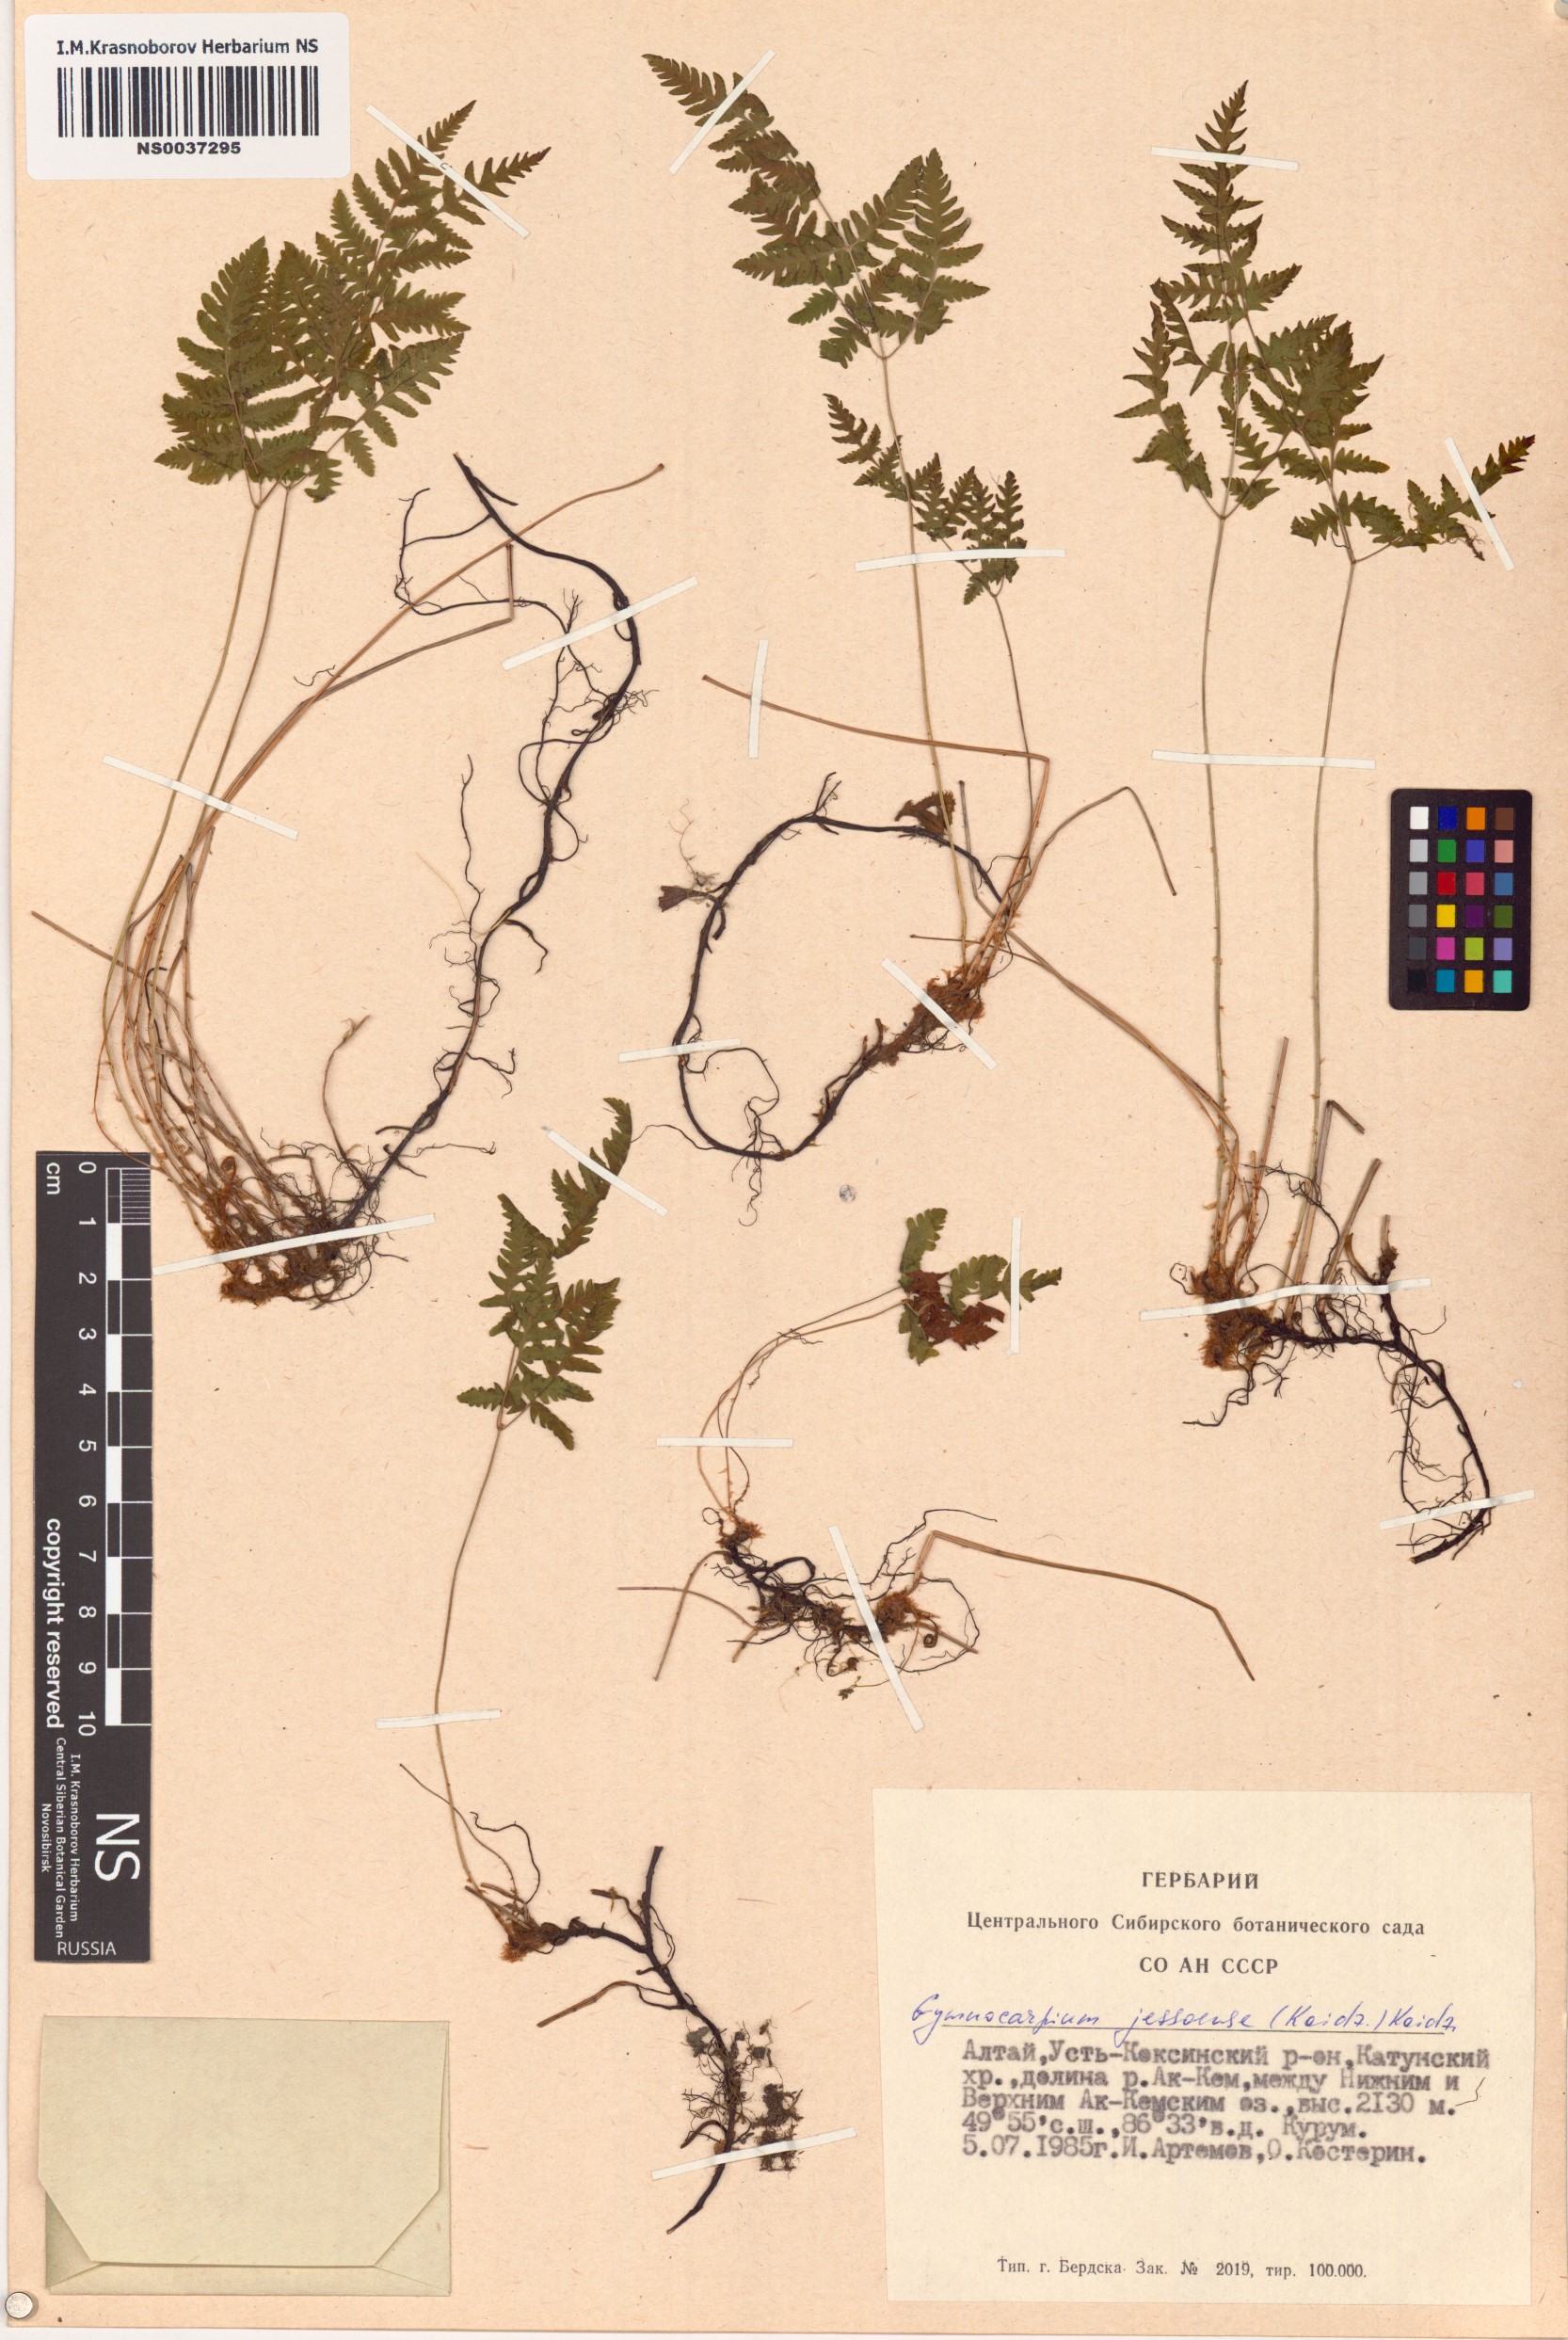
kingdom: Plantae
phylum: Tracheophyta
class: Polypodiopsida
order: Polypodiales
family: Cystopteridaceae
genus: Gymnocarpium
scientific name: Gymnocarpium jessoense
